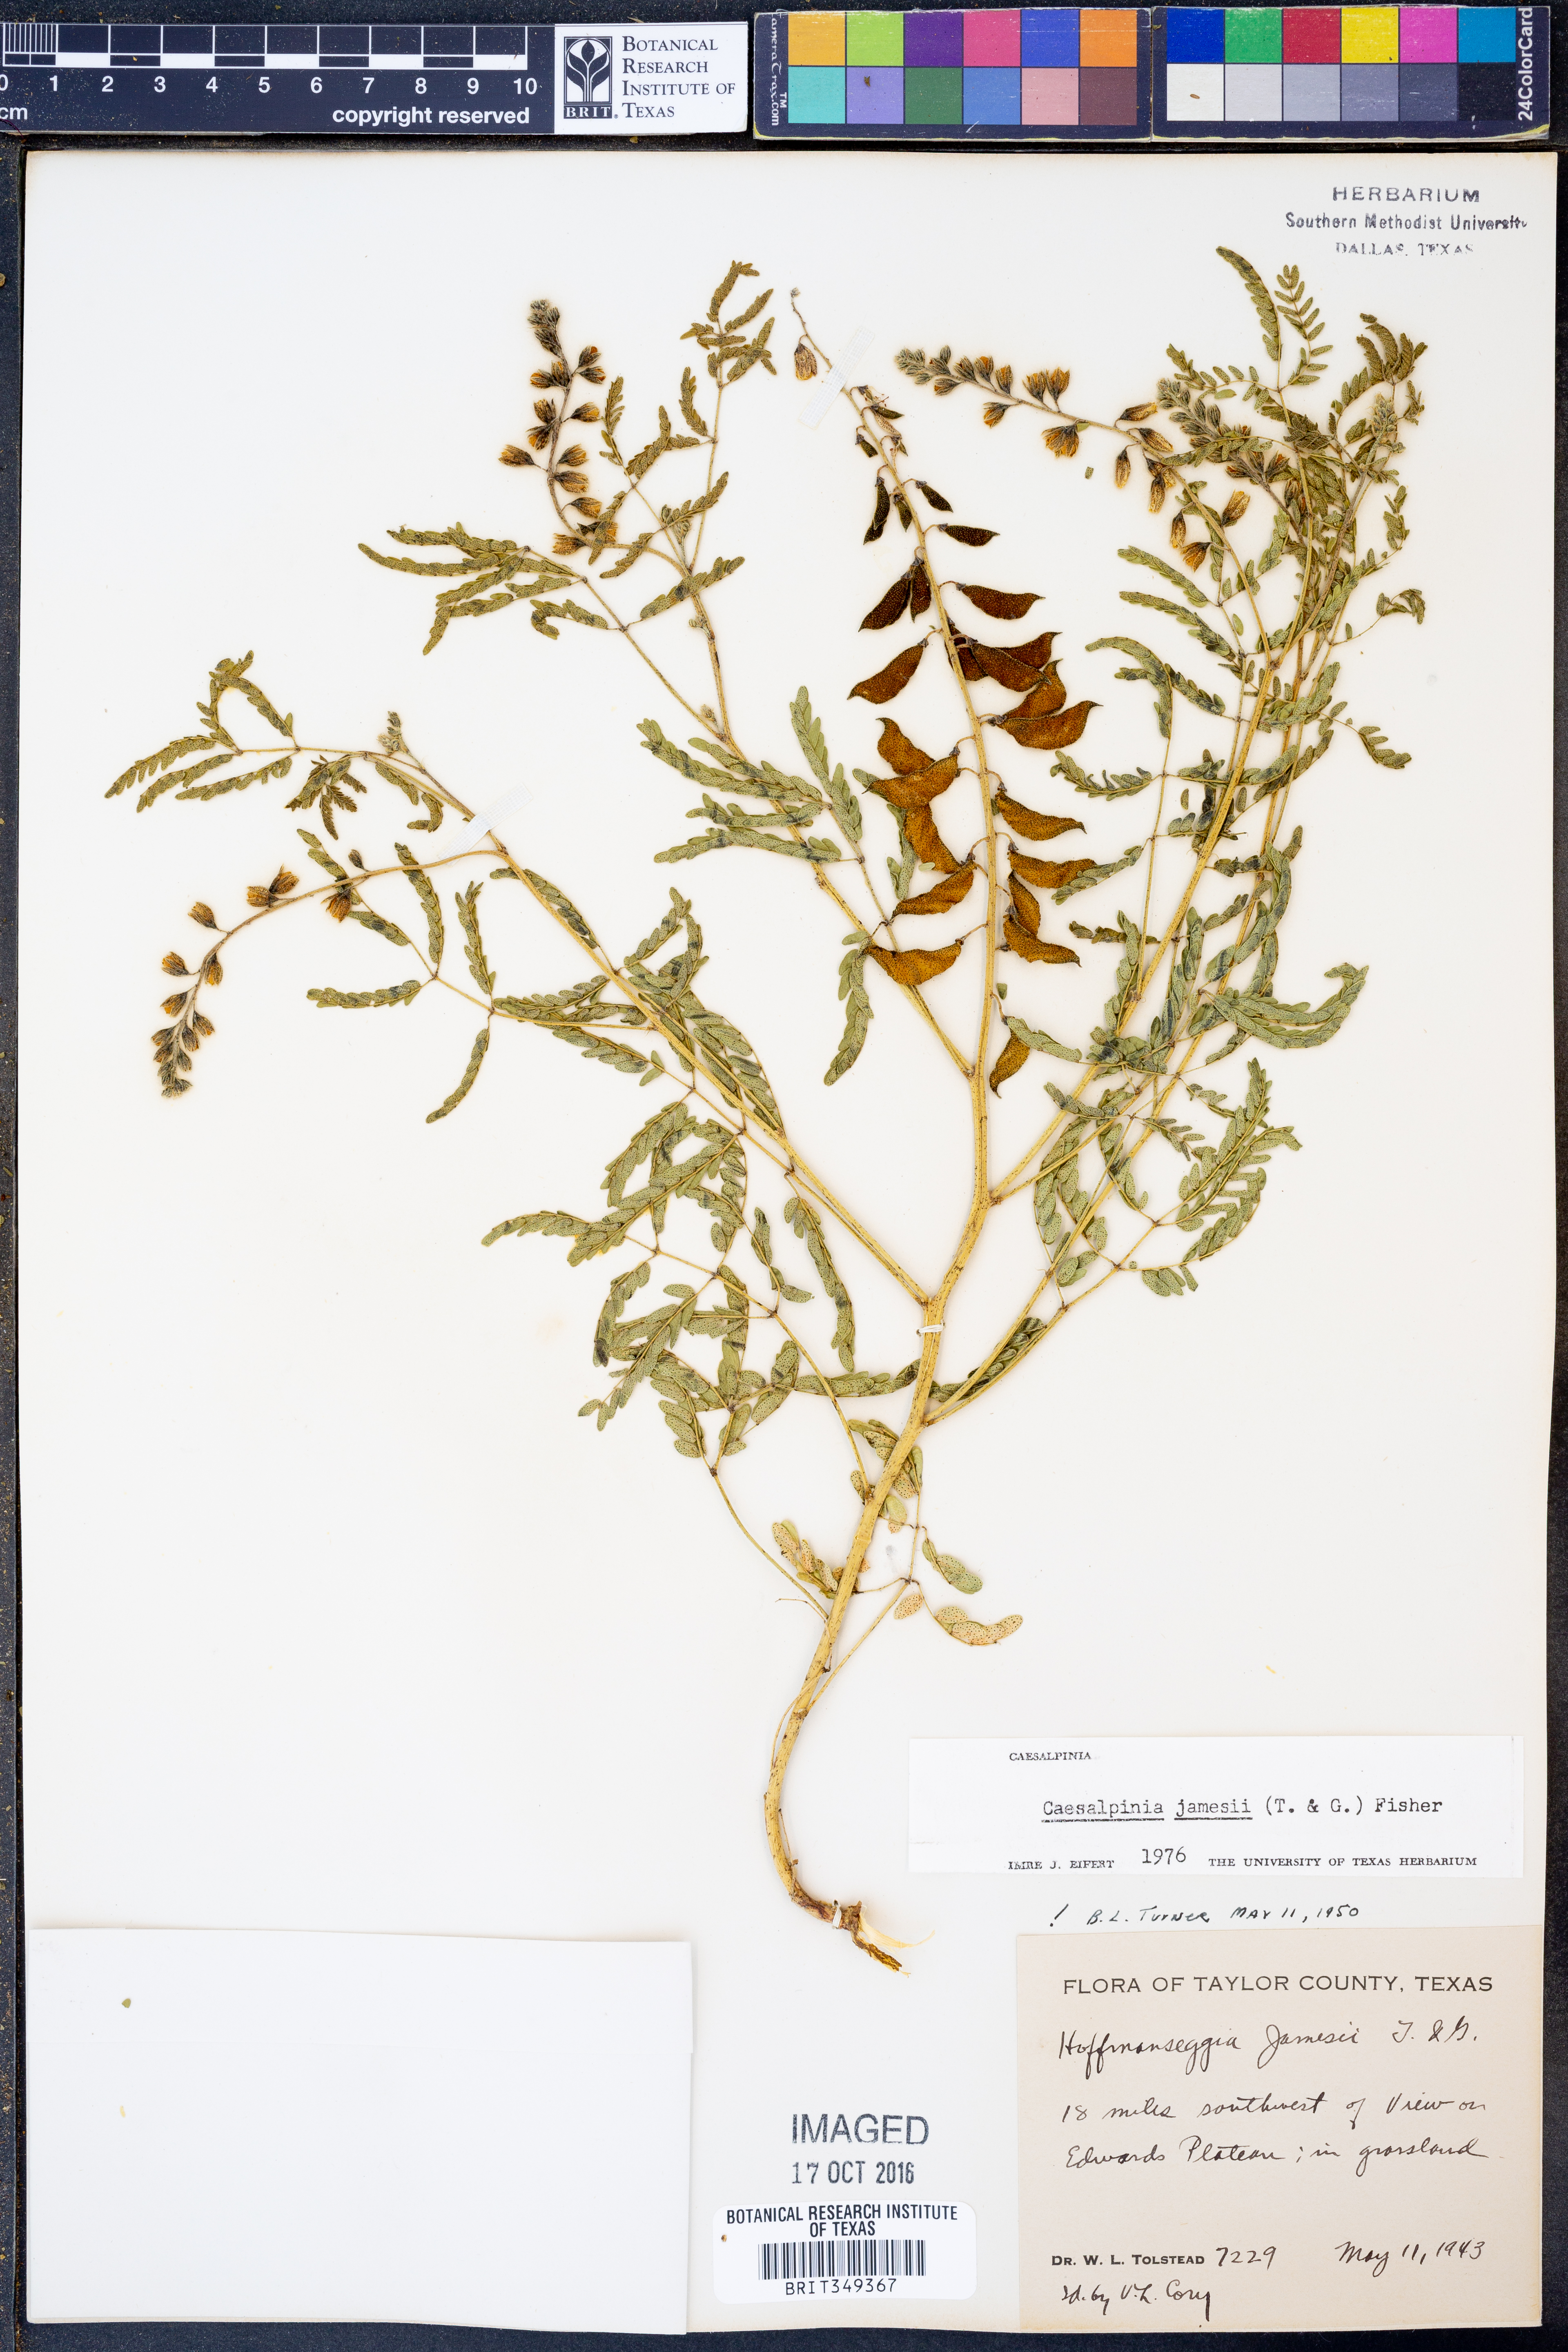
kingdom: Plantae
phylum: Tracheophyta
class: Magnoliopsida
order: Fabales
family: Fabaceae
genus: Pomaria
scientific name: Pomaria jamesii
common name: James' caesalpinia
